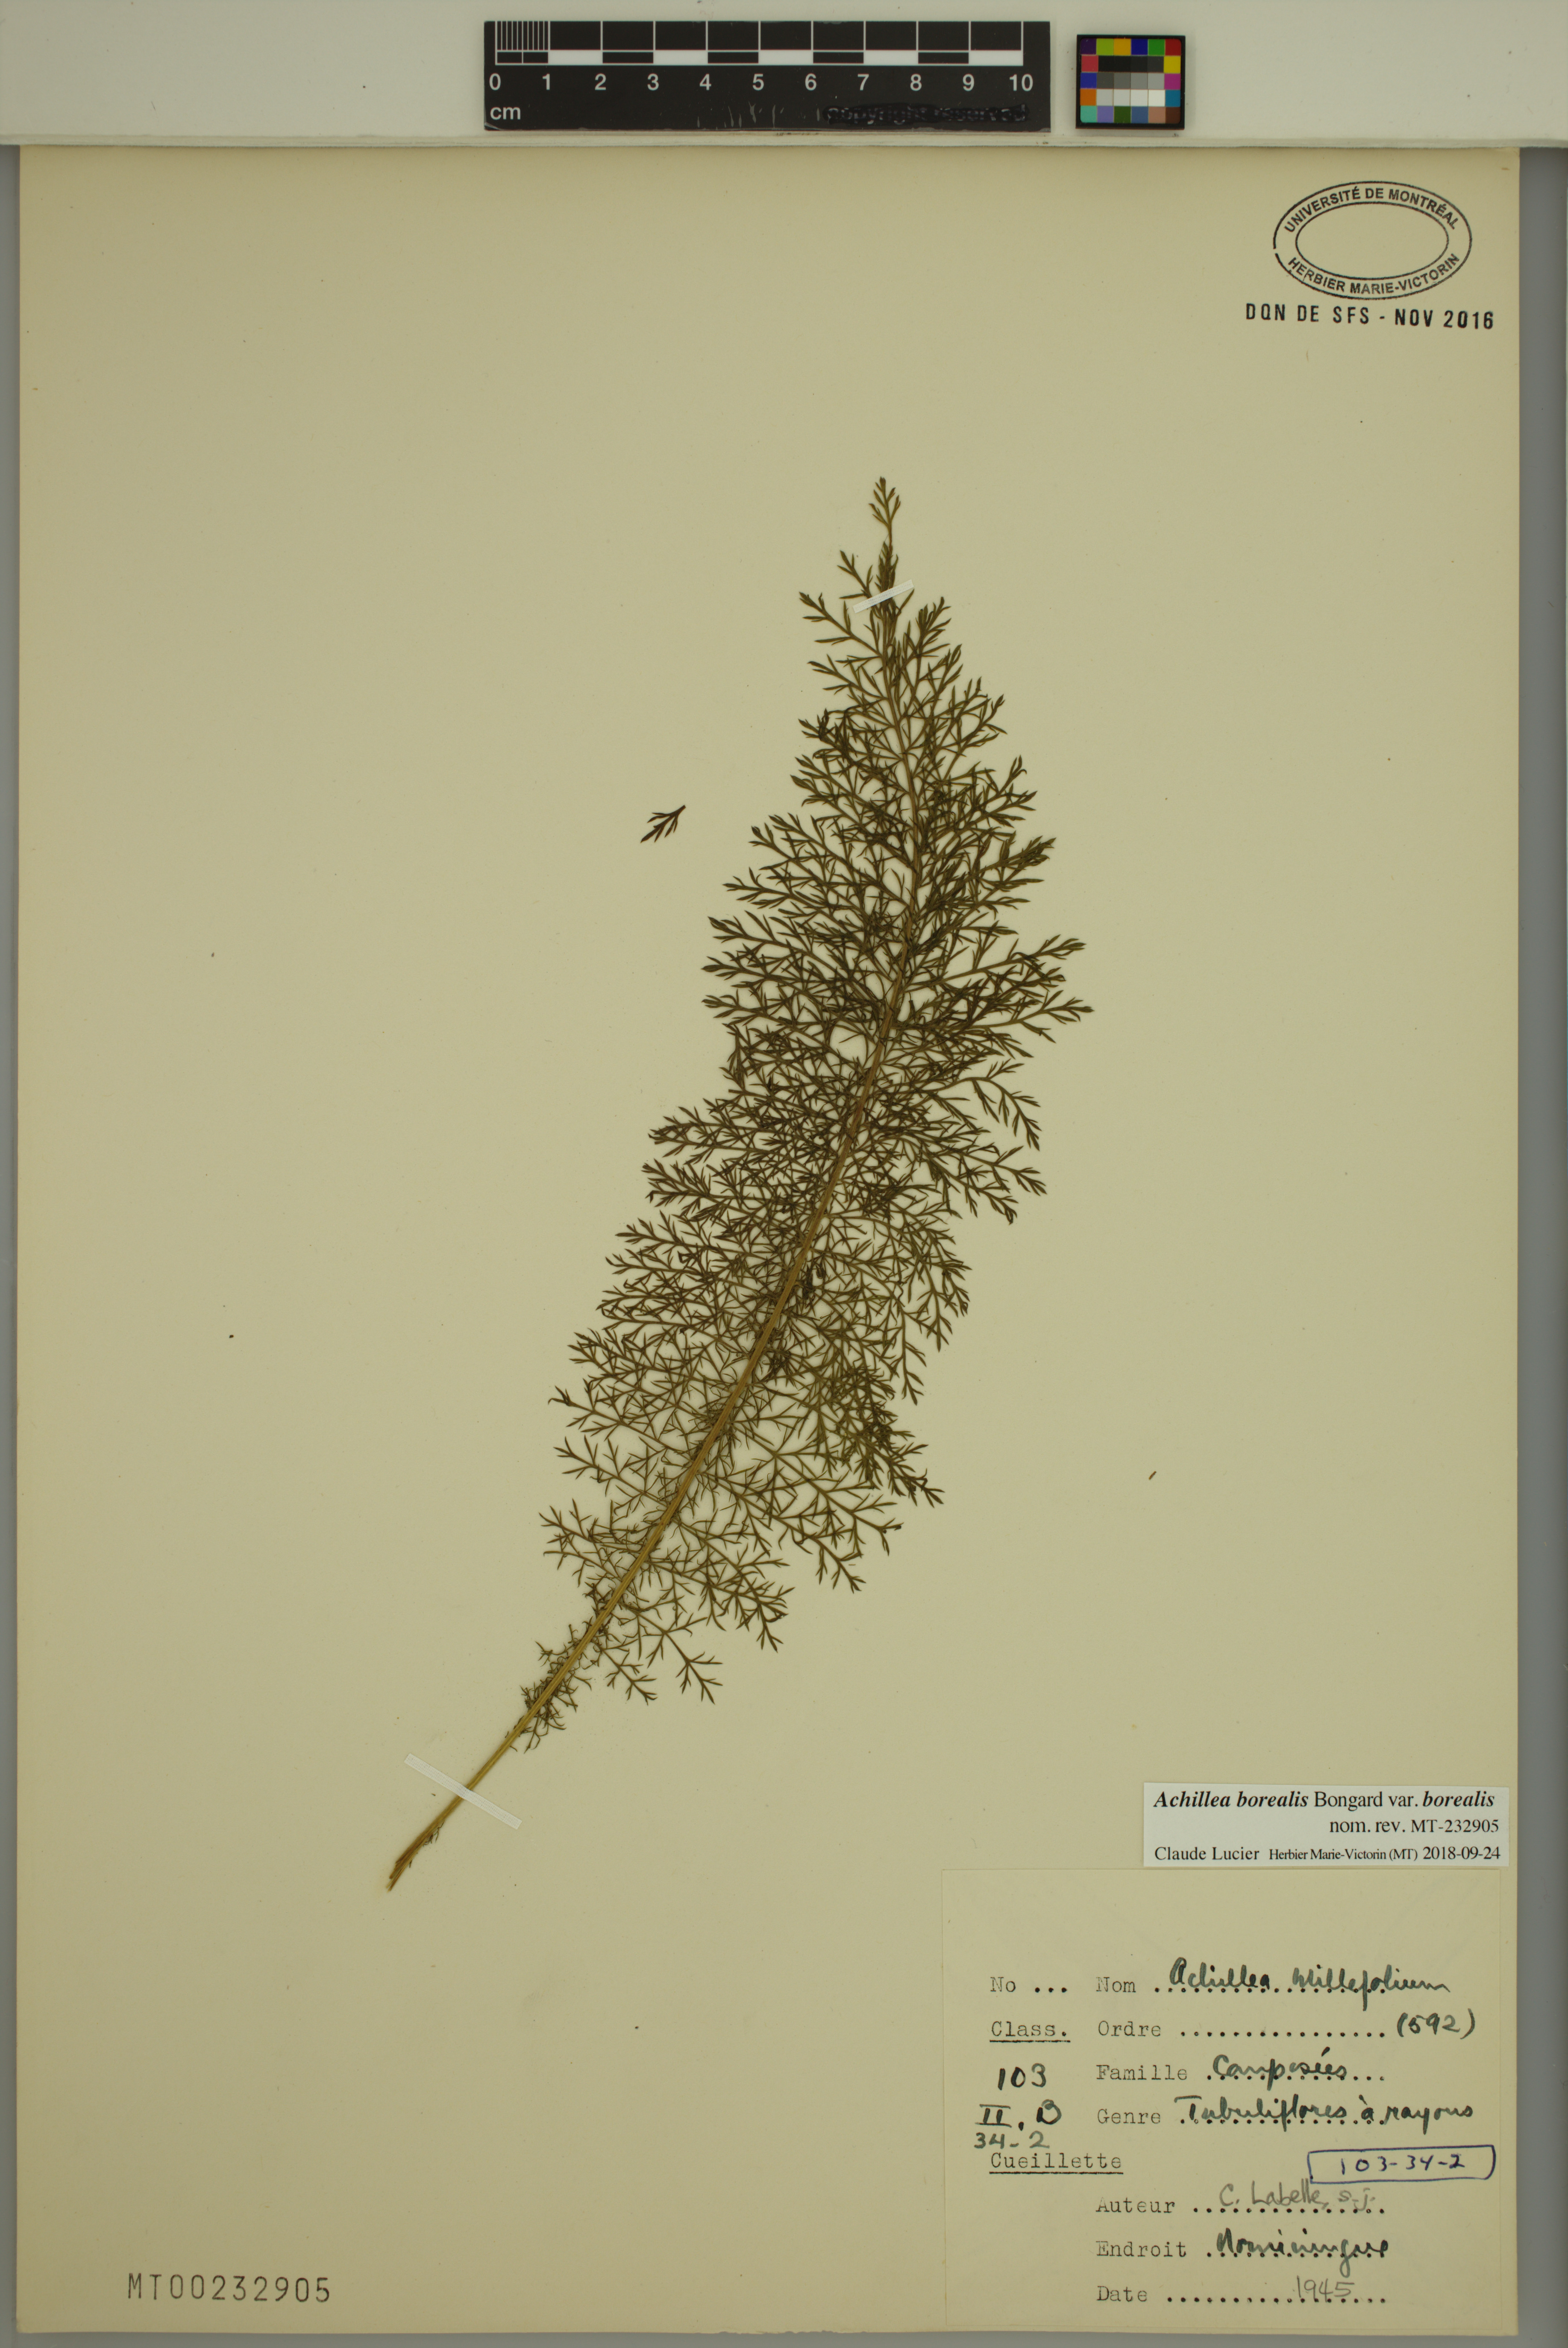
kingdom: Plantae
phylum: Tracheophyta
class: Magnoliopsida
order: Asterales
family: Asteraceae
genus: Achillea
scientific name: Achillea millefolium
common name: Yarrow
